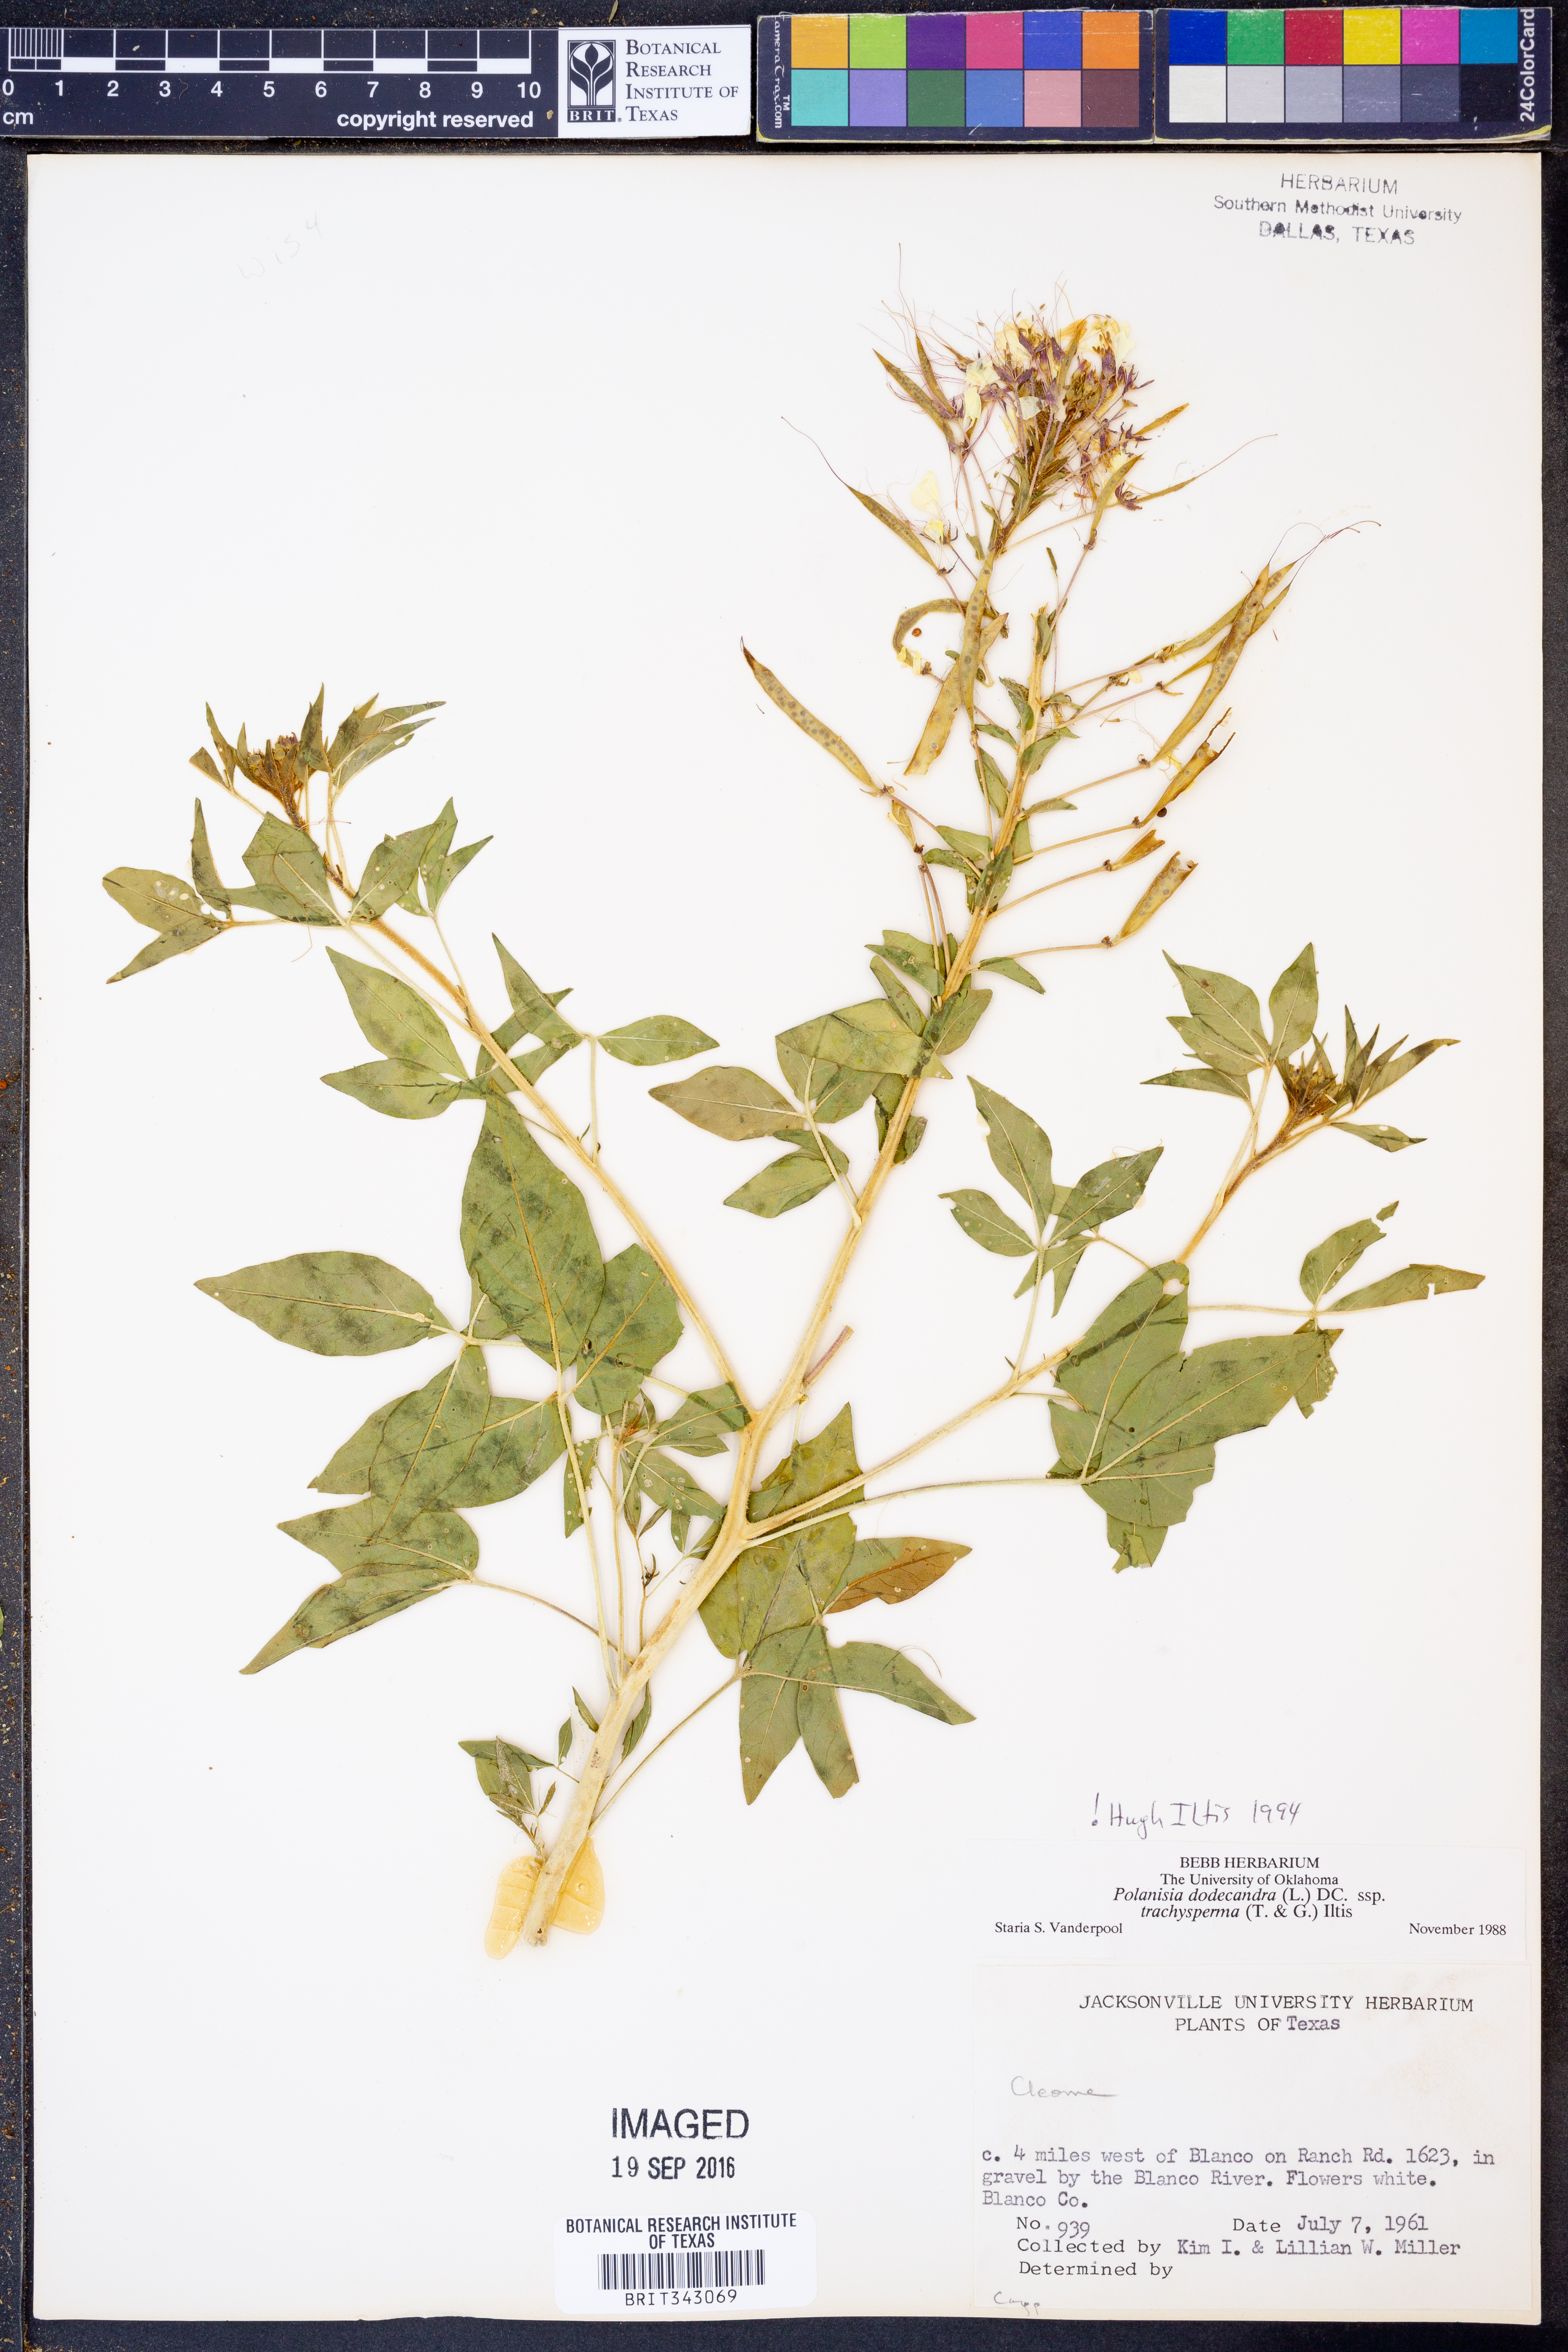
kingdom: Plantae
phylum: Tracheophyta
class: Magnoliopsida
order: Brassicales
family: Cleomaceae
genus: Polanisia
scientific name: Polanisia trachysperma
